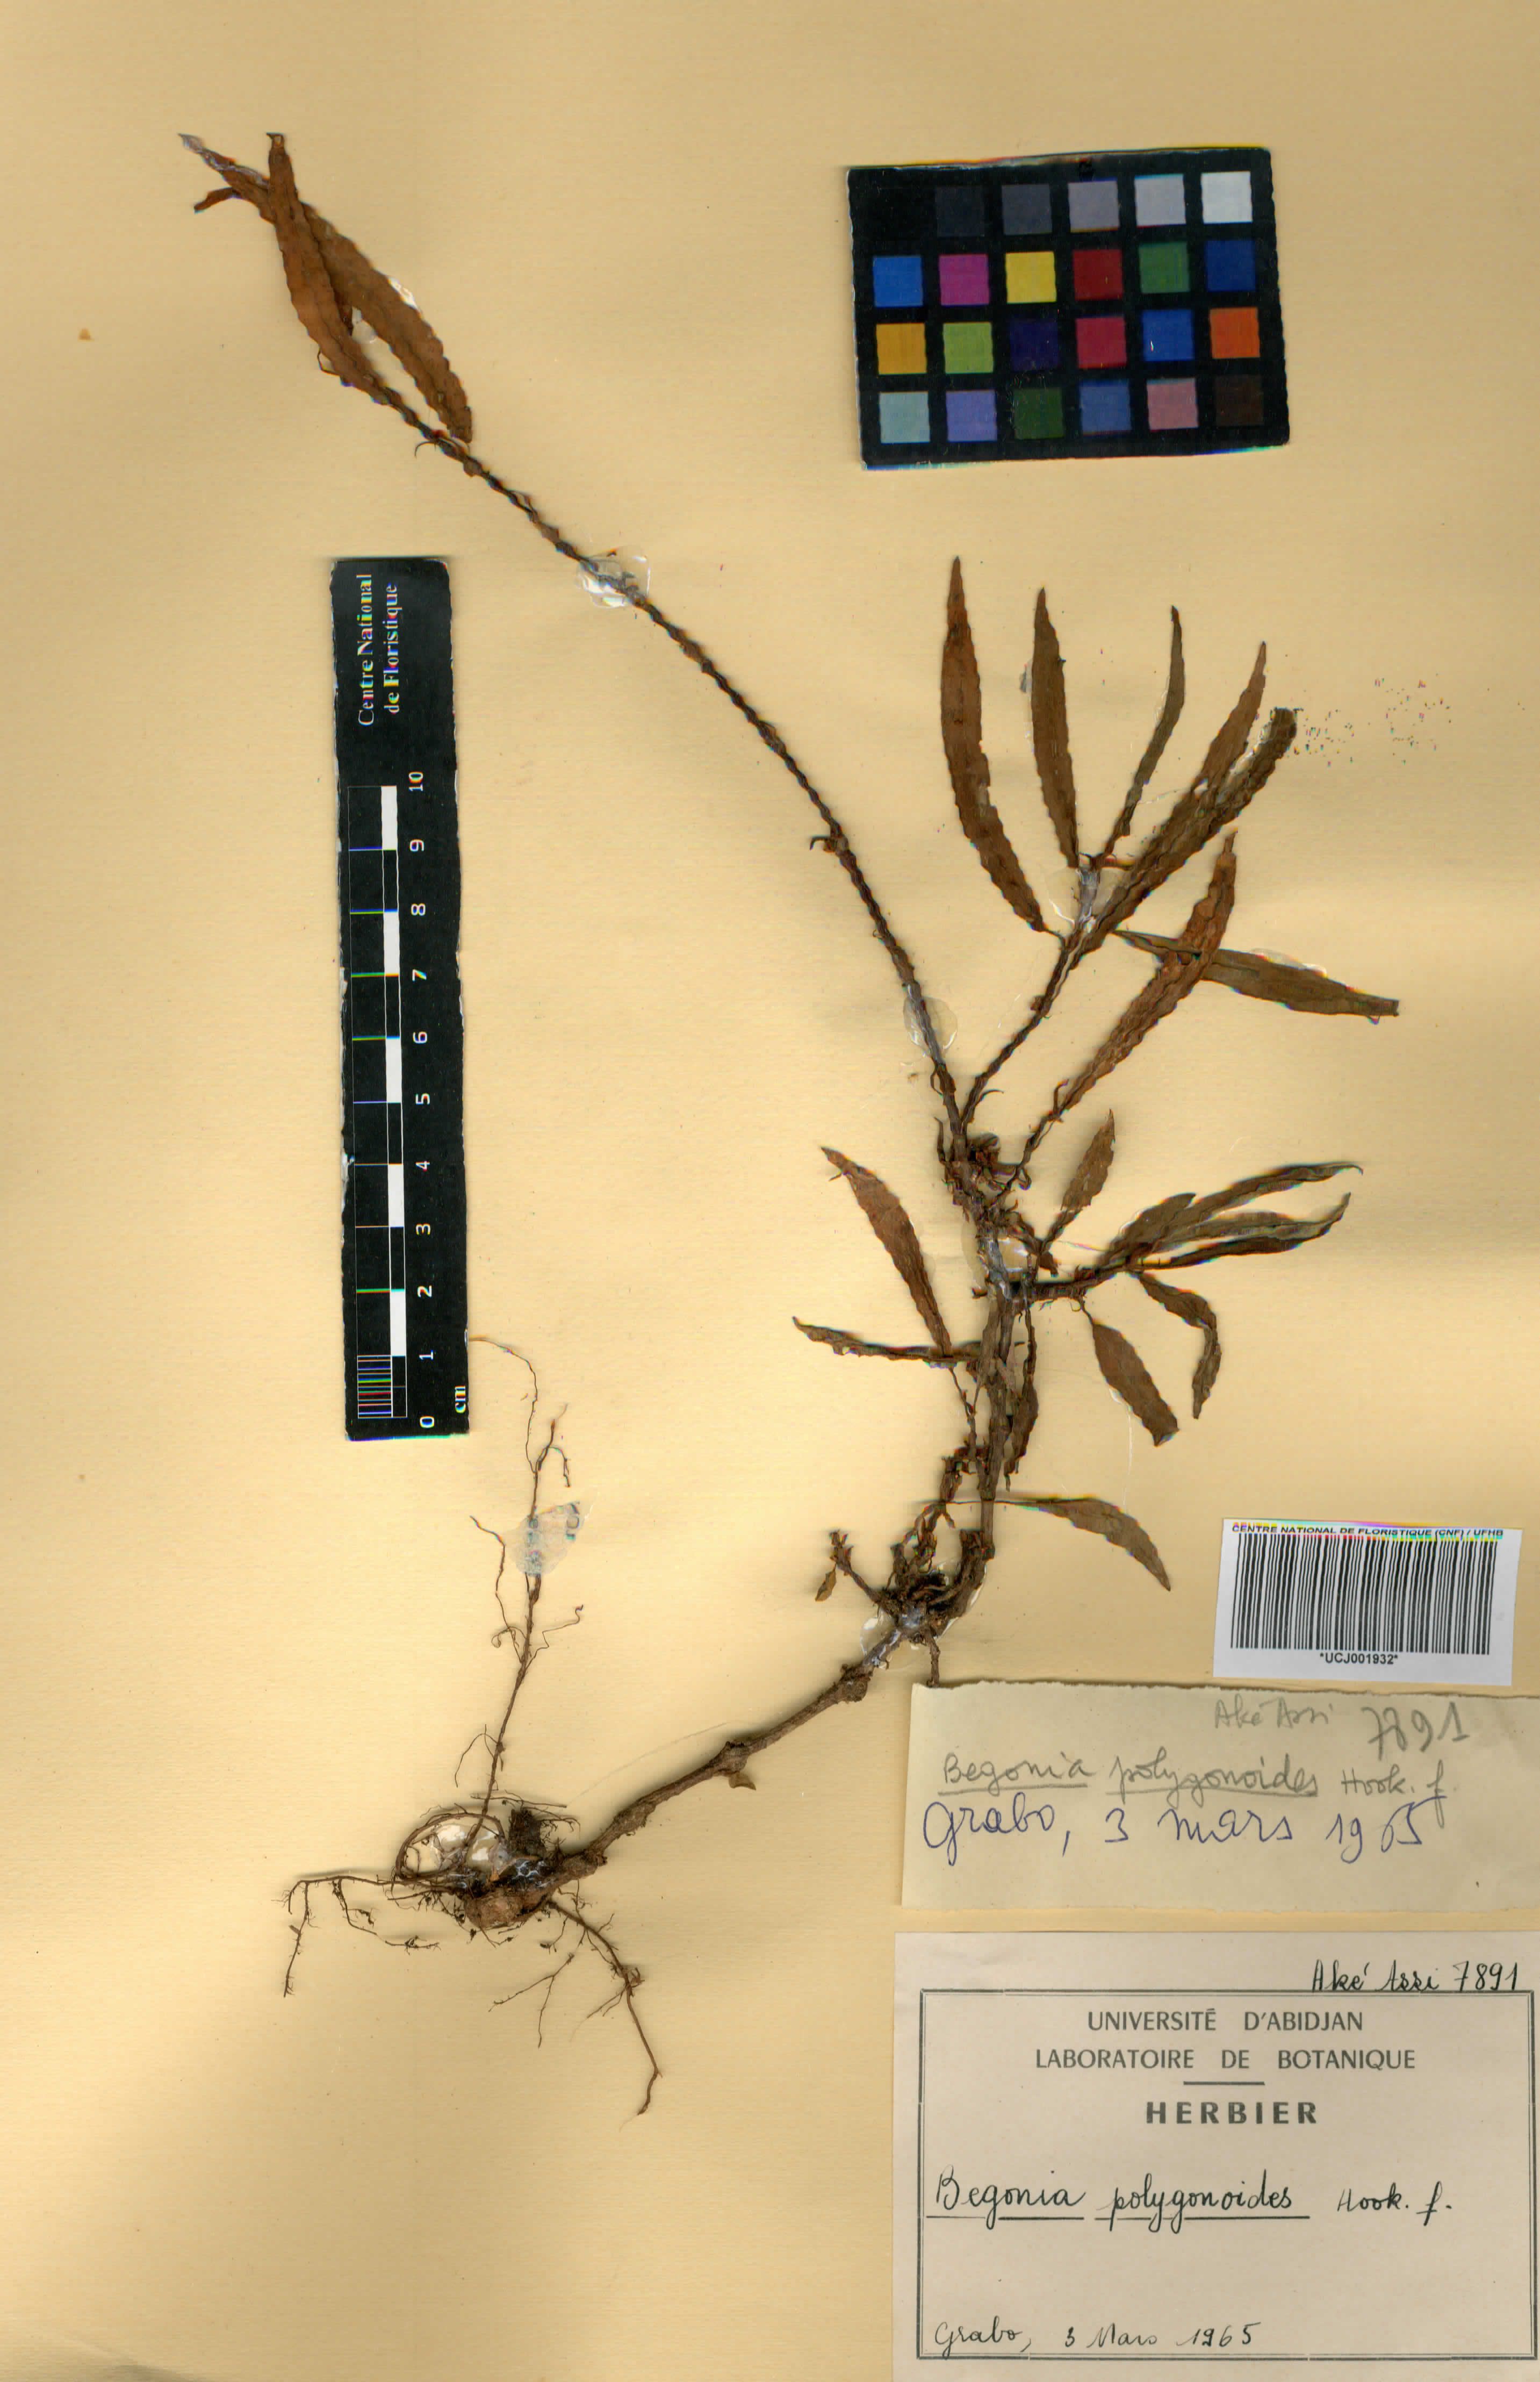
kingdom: Plantae
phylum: Tracheophyta
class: Magnoliopsida
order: Cucurbitales
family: Begoniaceae
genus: Begonia
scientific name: Begonia polygonoides
